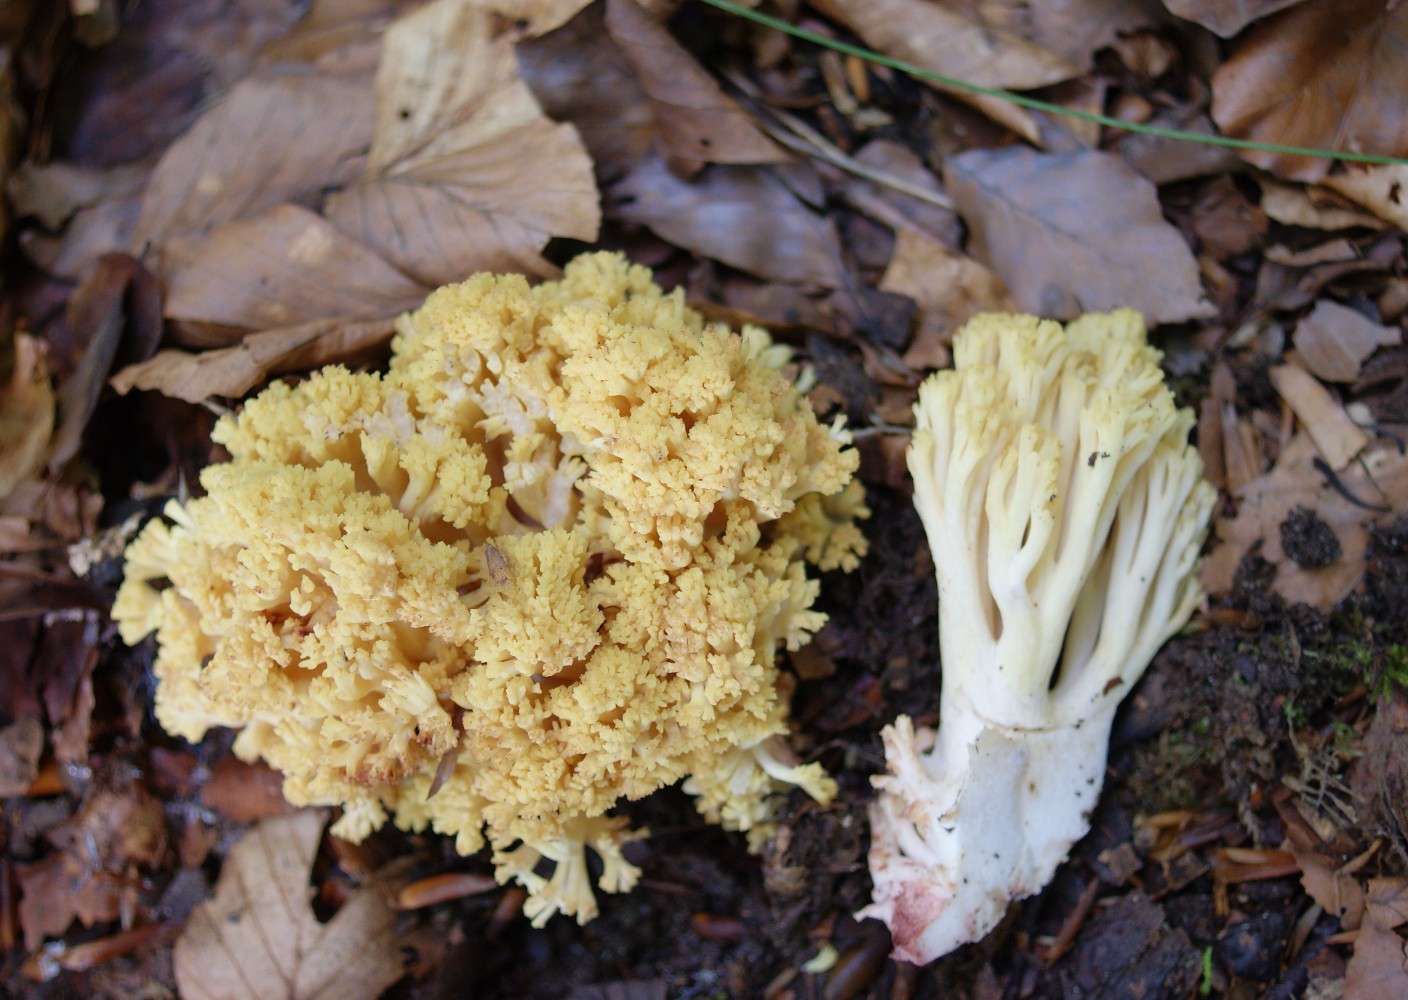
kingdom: Fungi
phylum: Basidiomycota
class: Agaricomycetes
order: Gomphales
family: Gomphaceae
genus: Ramaria
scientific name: Ramaria sanguinea
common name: blodplettet koralsvamp
